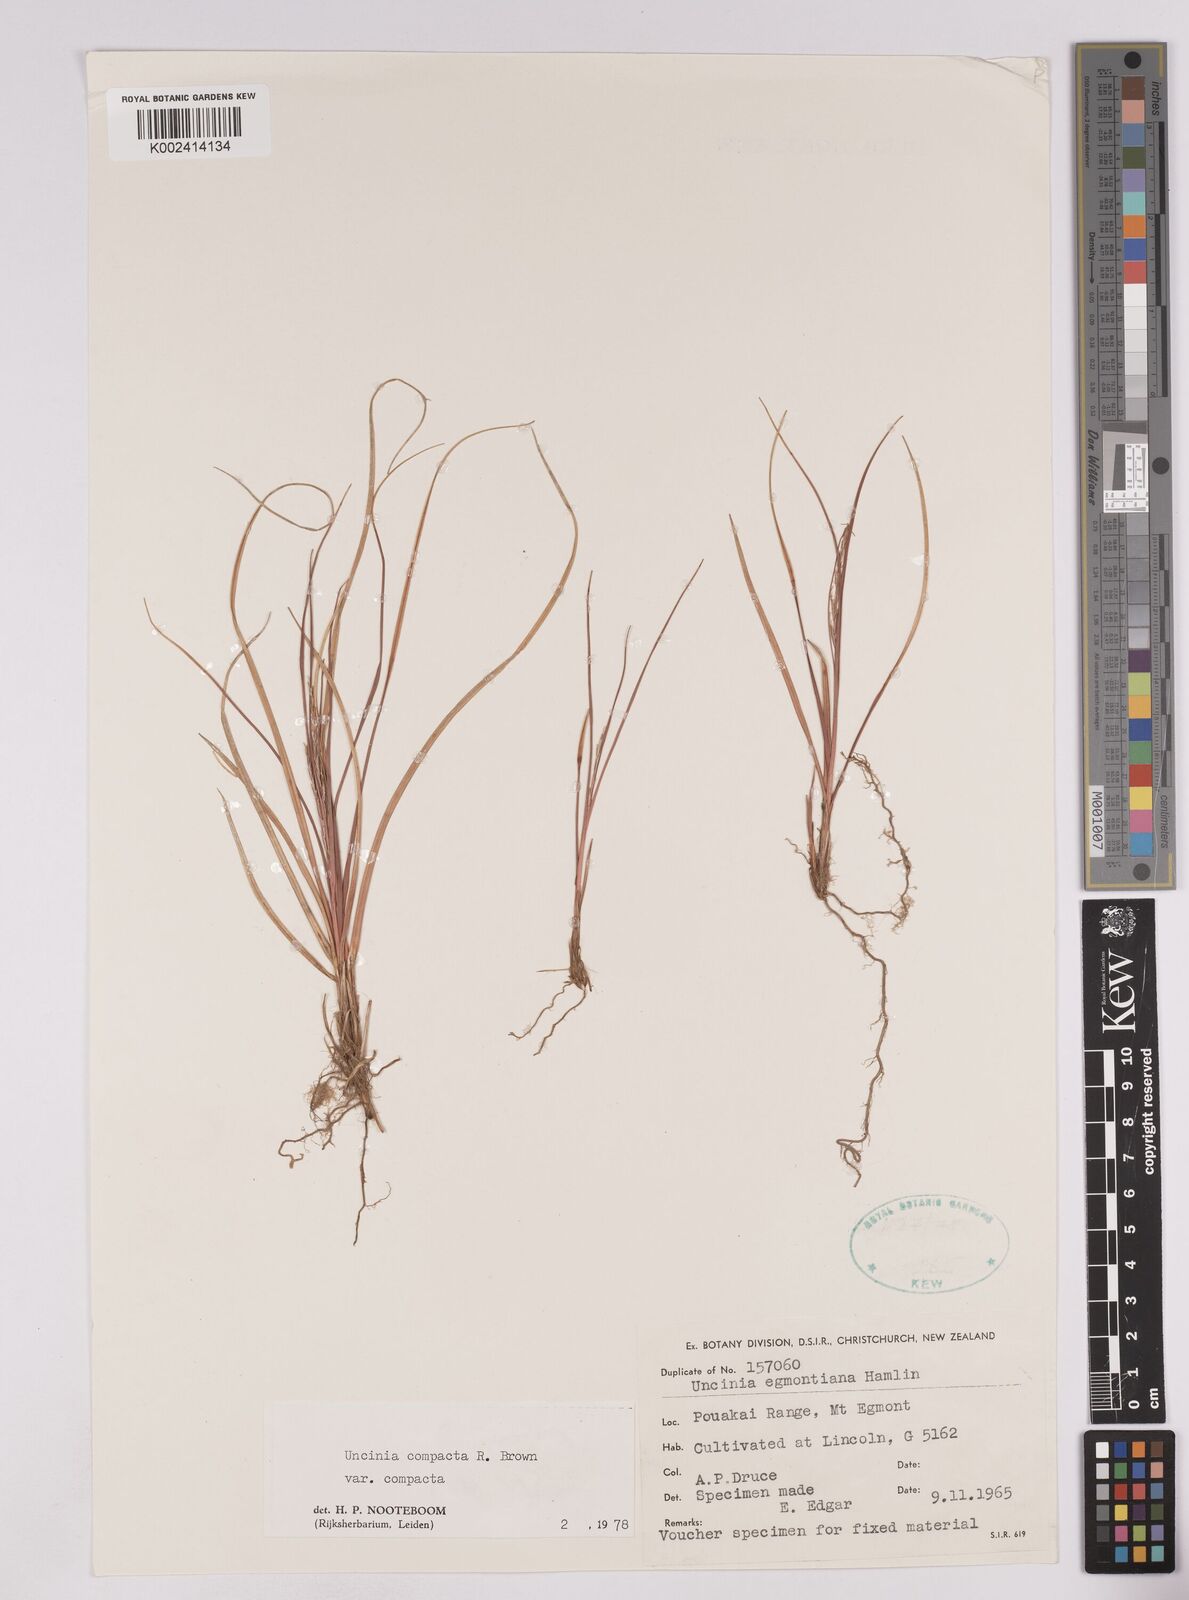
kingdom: Plantae
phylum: Tracheophyta
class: Liliopsida
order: Poales
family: Cyperaceae
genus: Carex
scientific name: Carex austrocompacta
